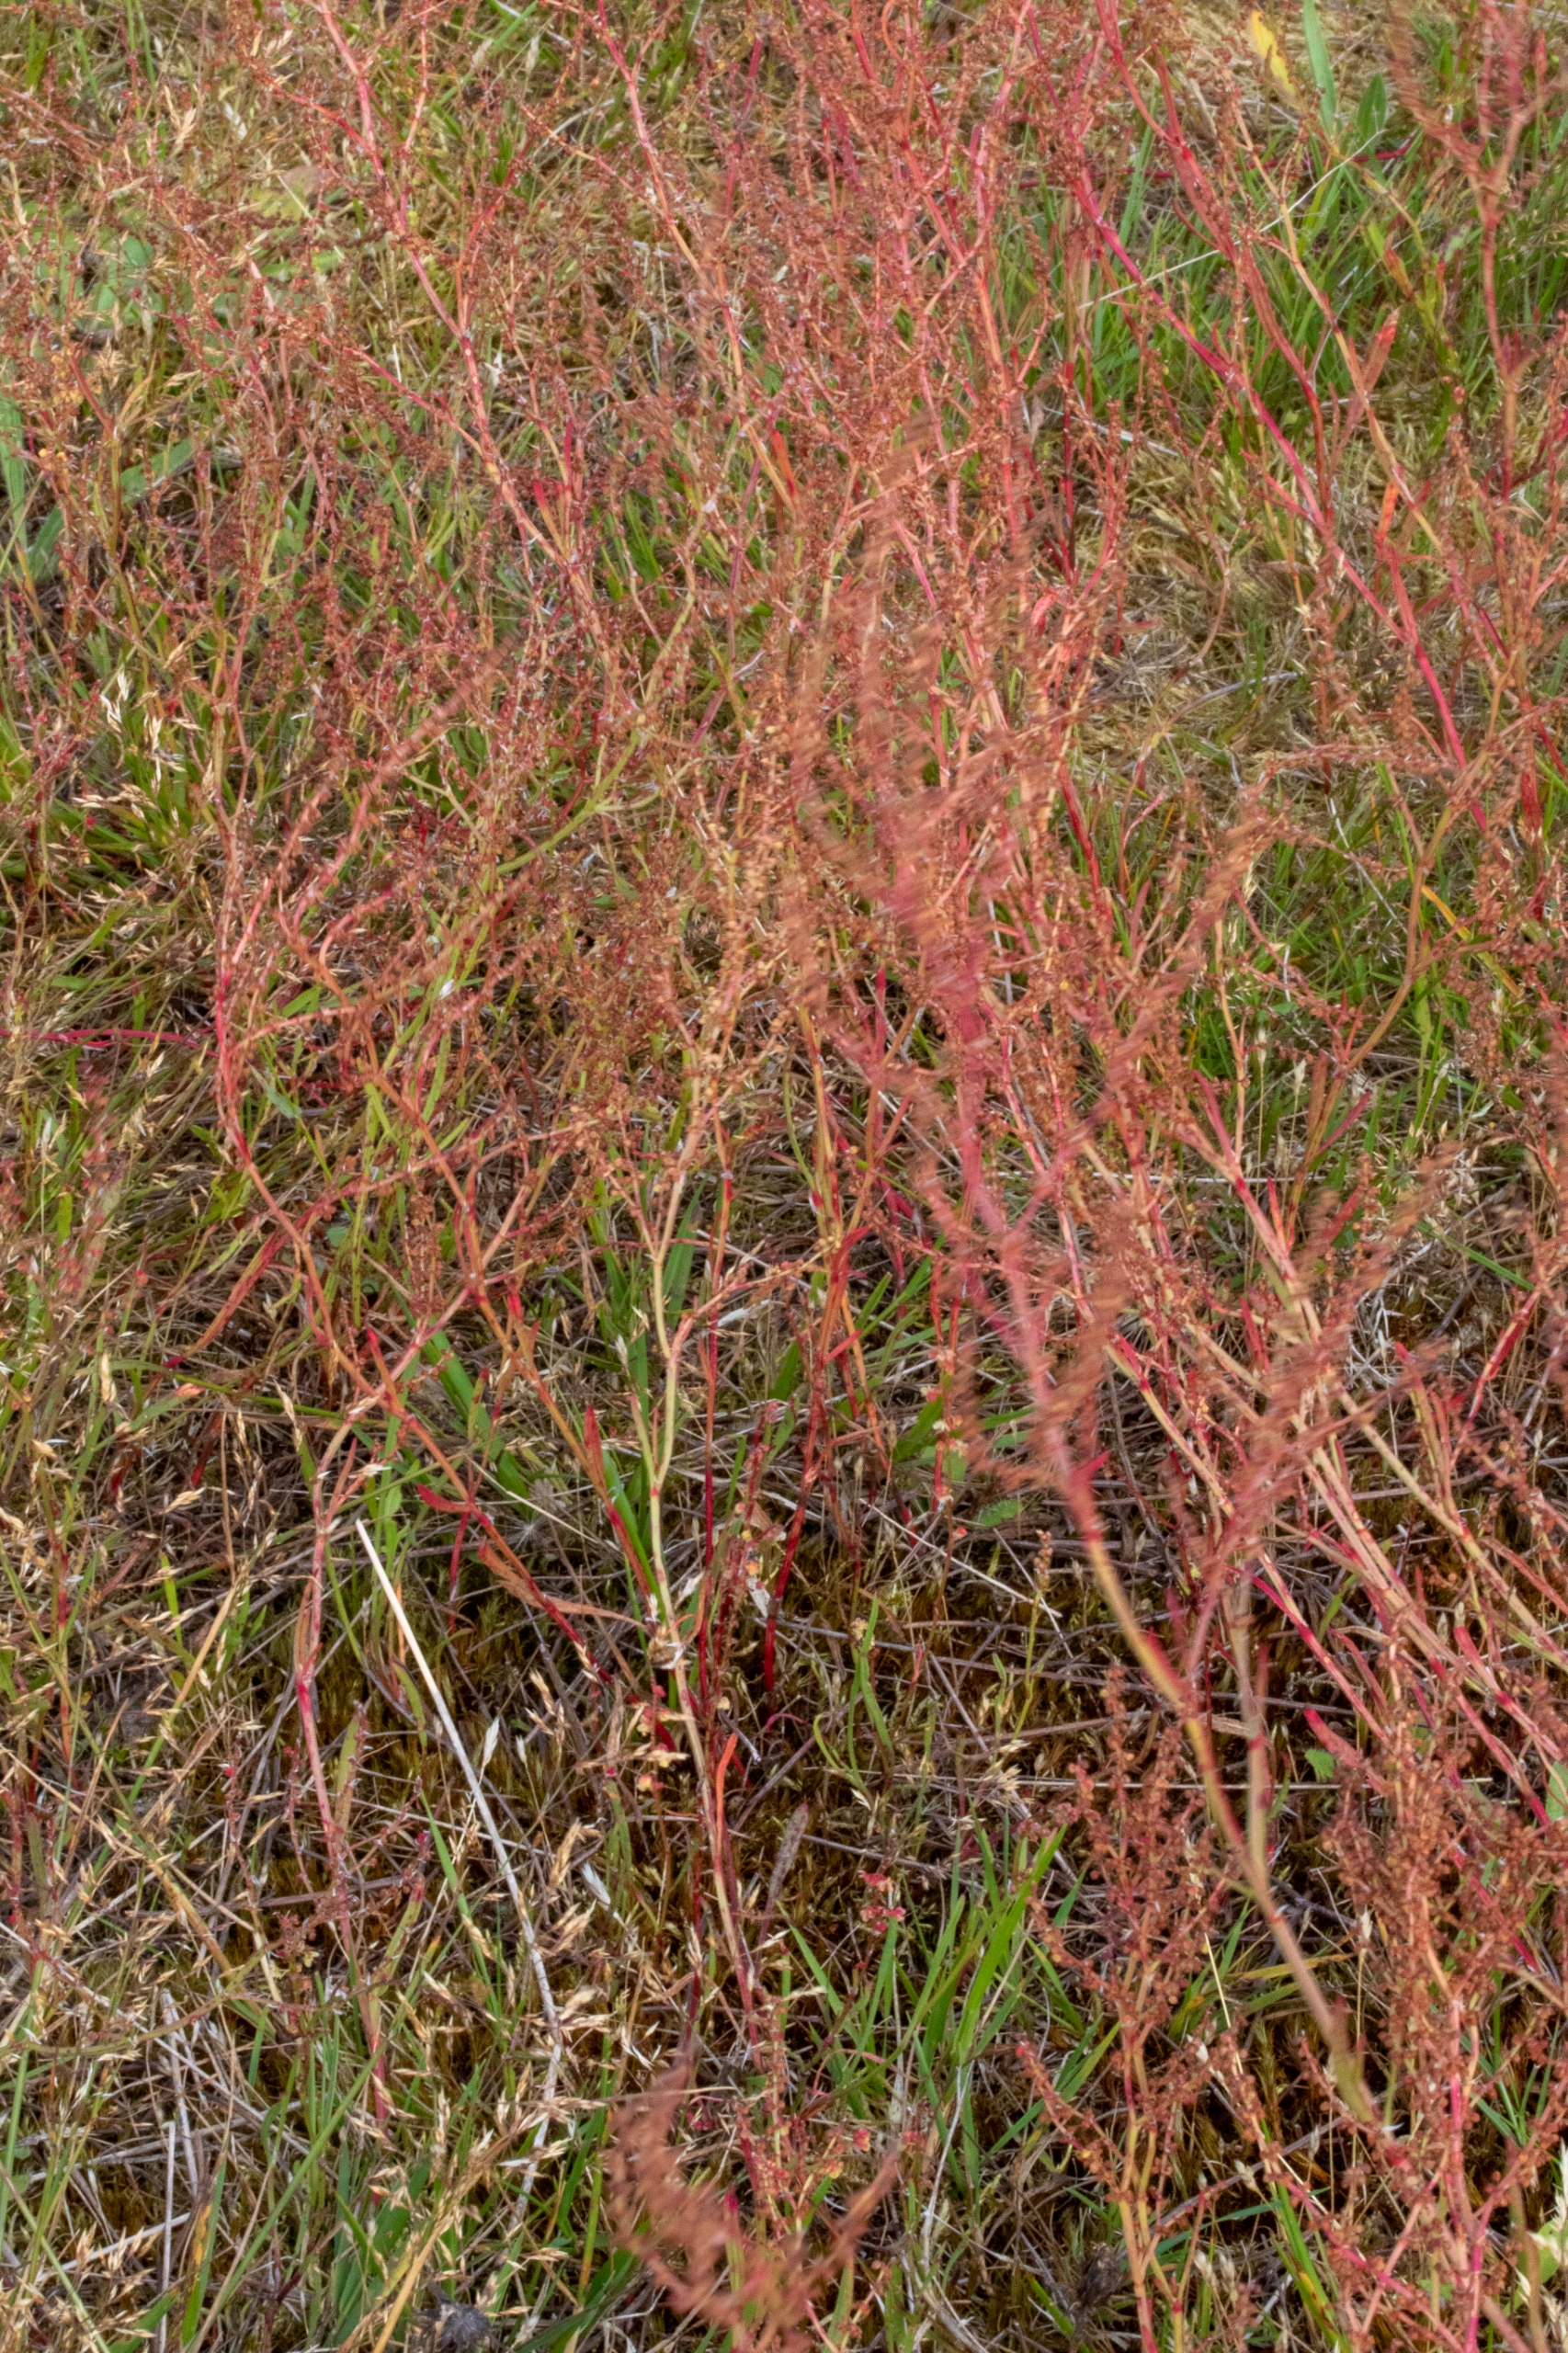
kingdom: Plantae
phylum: Tracheophyta
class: Magnoliopsida
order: Caryophyllales
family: Polygonaceae
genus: Rumex
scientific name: Rumex acetosella
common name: Rødknæ
